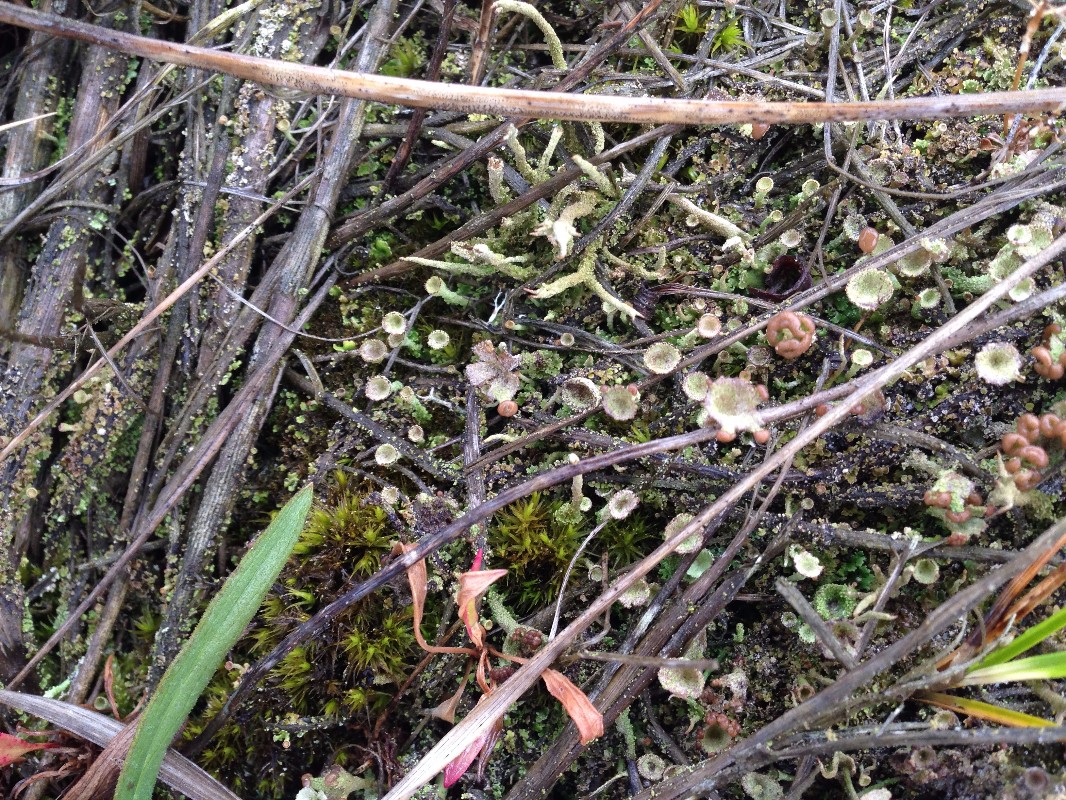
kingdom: Fungi
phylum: Ascomycota
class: Lecanoromycetes
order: Lecanorales
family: Cladoniaceae
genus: Cladonia
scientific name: Cladonia merochlorophaea
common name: mørk bægerlav
